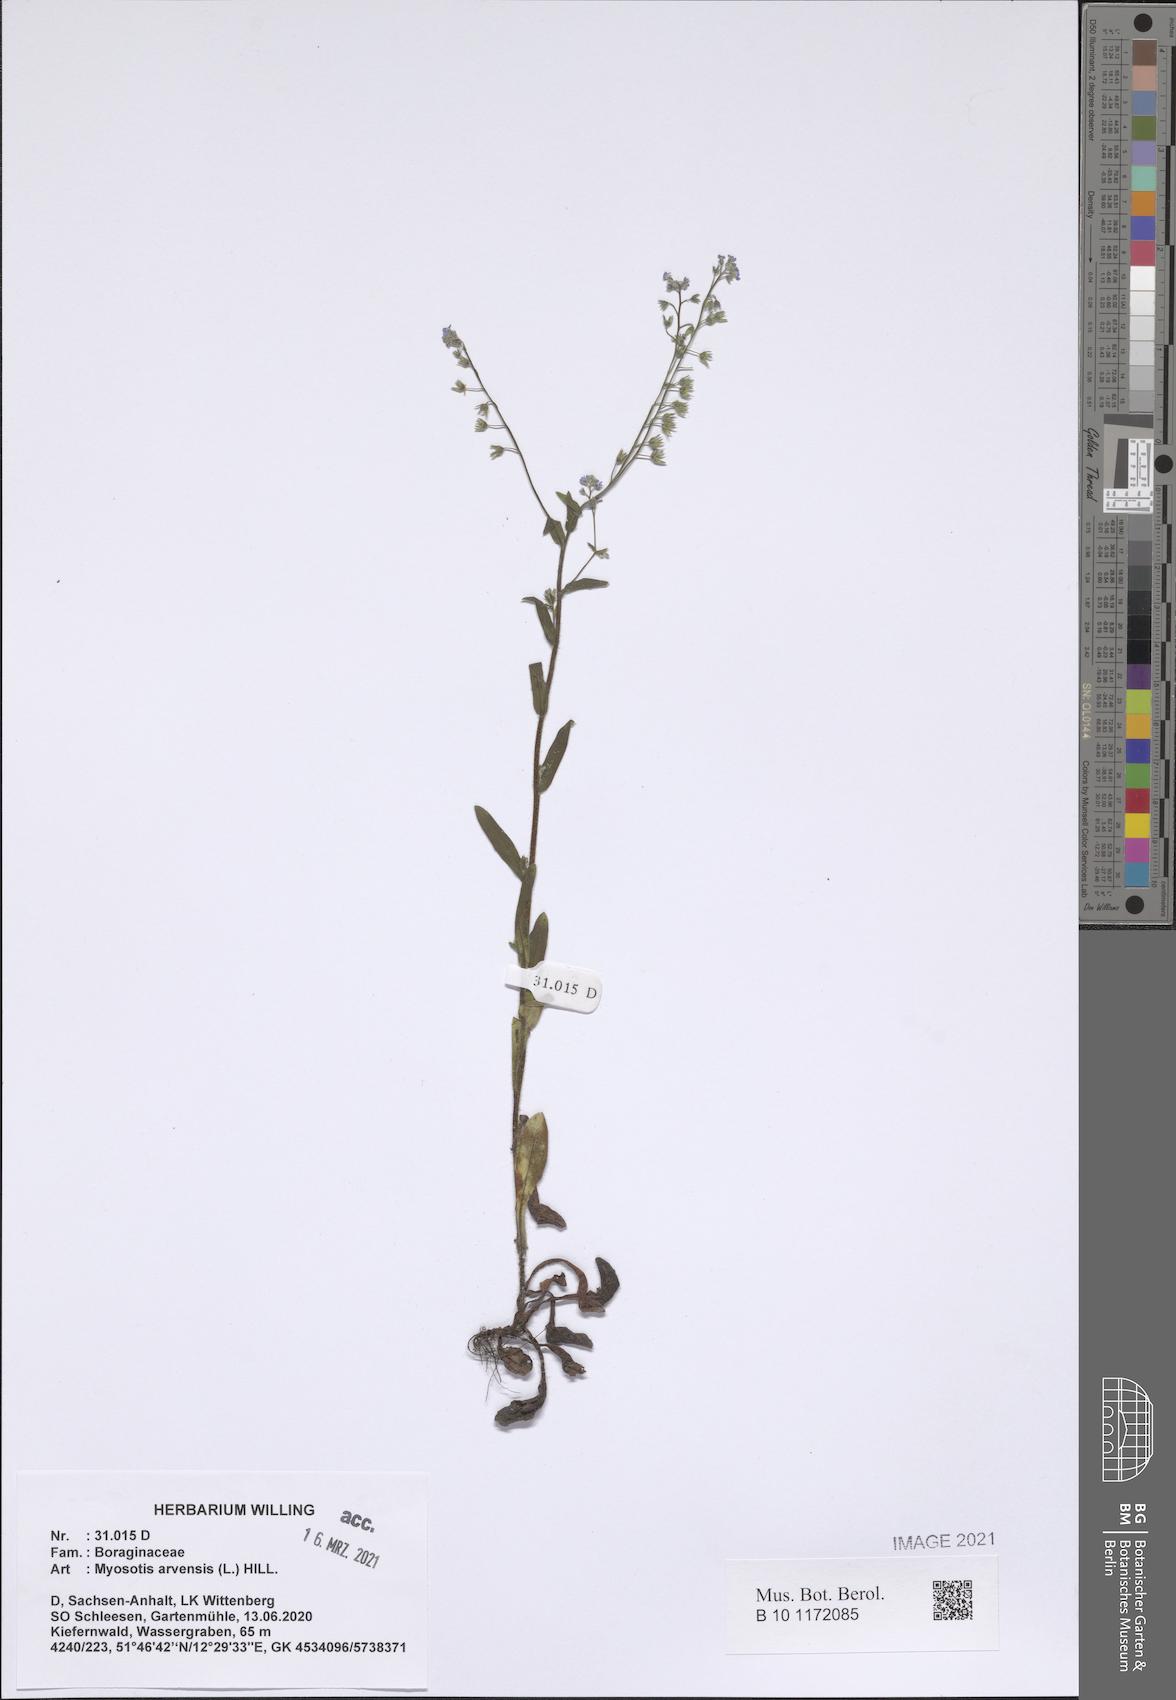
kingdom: Plantae
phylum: Tracheophyta
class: Magnoliopsida
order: Boraginales
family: Boraginaceae
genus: Myosotis
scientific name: Myosotis arvensis
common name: Field forget-me-not
